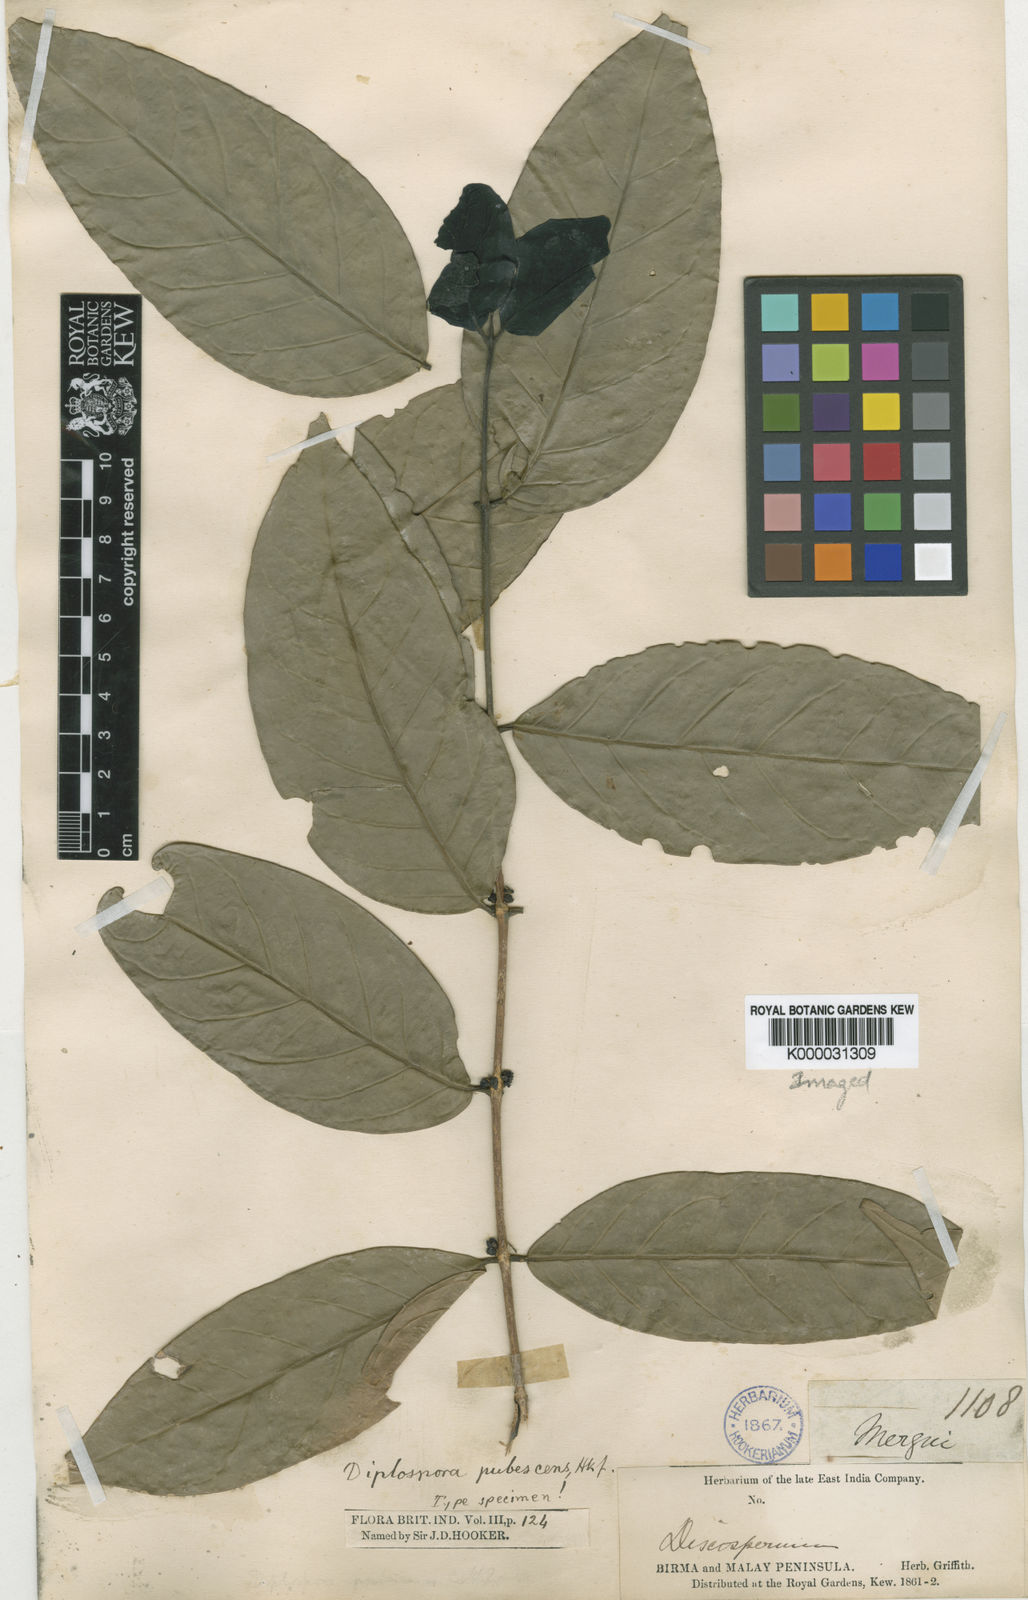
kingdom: Plantae
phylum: Tracheophyta
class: Magnoliopsida
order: Gentianales
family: Rubiaceae
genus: Diplospora
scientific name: Diplospora pubescens
